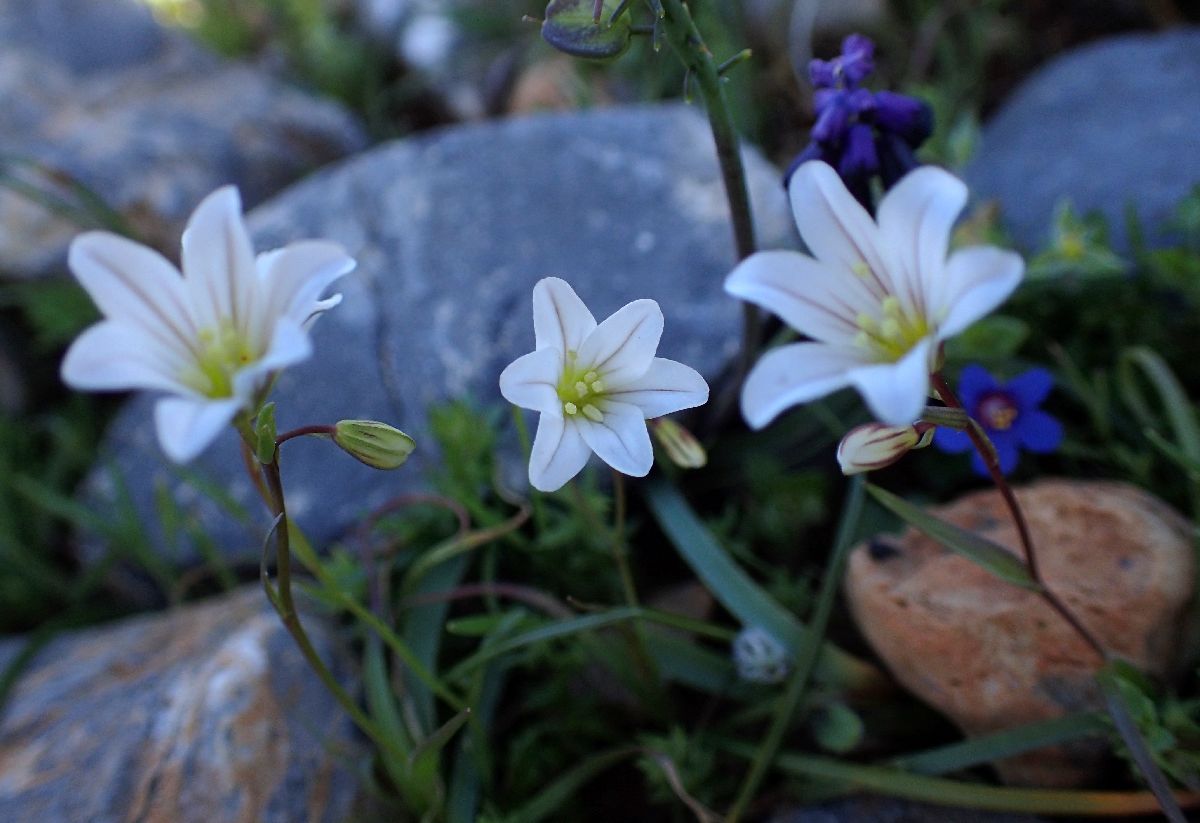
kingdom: Plantae
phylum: Tracheophyta
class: Liliopsida
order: Liliales
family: Liliaceae
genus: Gagea
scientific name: Gagea graeca
